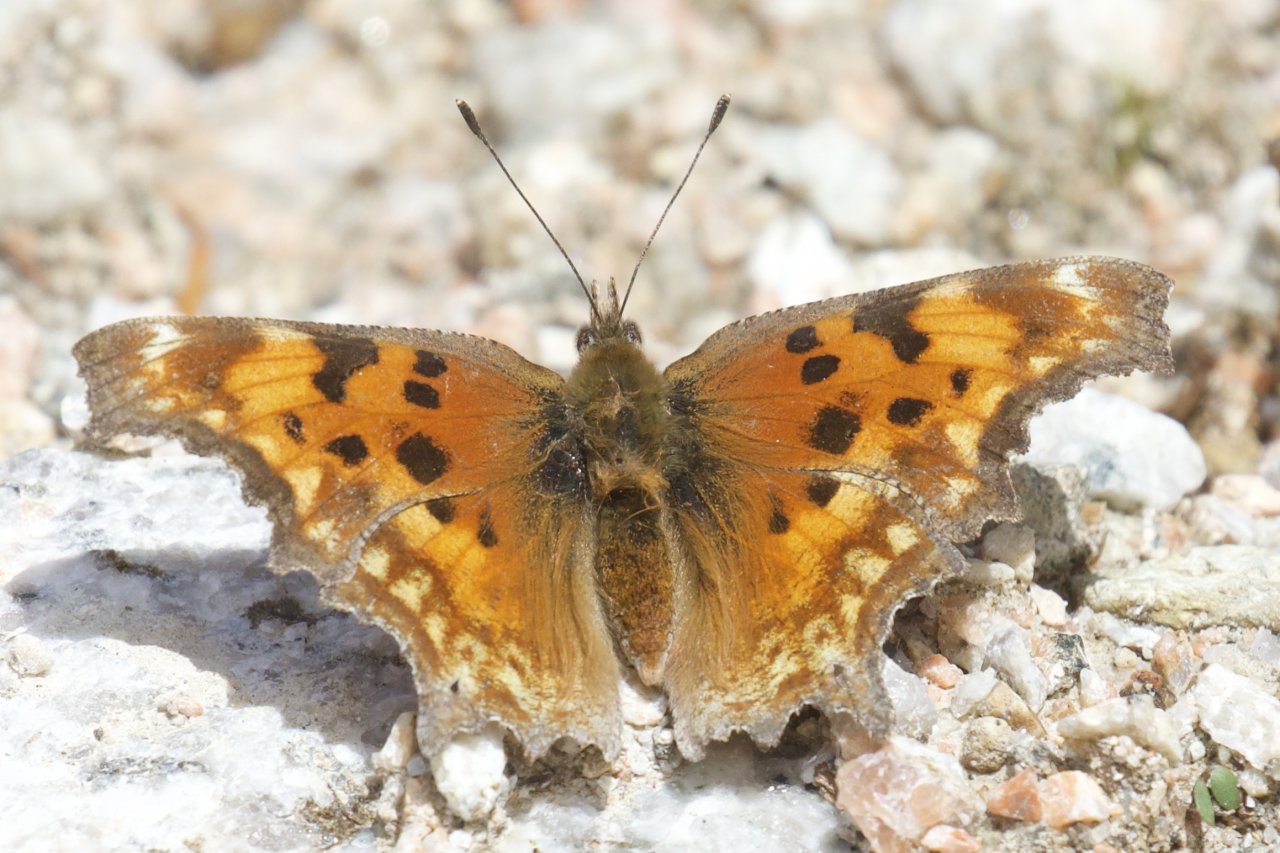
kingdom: Animalia
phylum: Arthropoda
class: Insecta
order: Lepidoptera
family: Nymphalidae
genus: Polygonia
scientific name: Polygonia gracilis
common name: Hoary Comma
